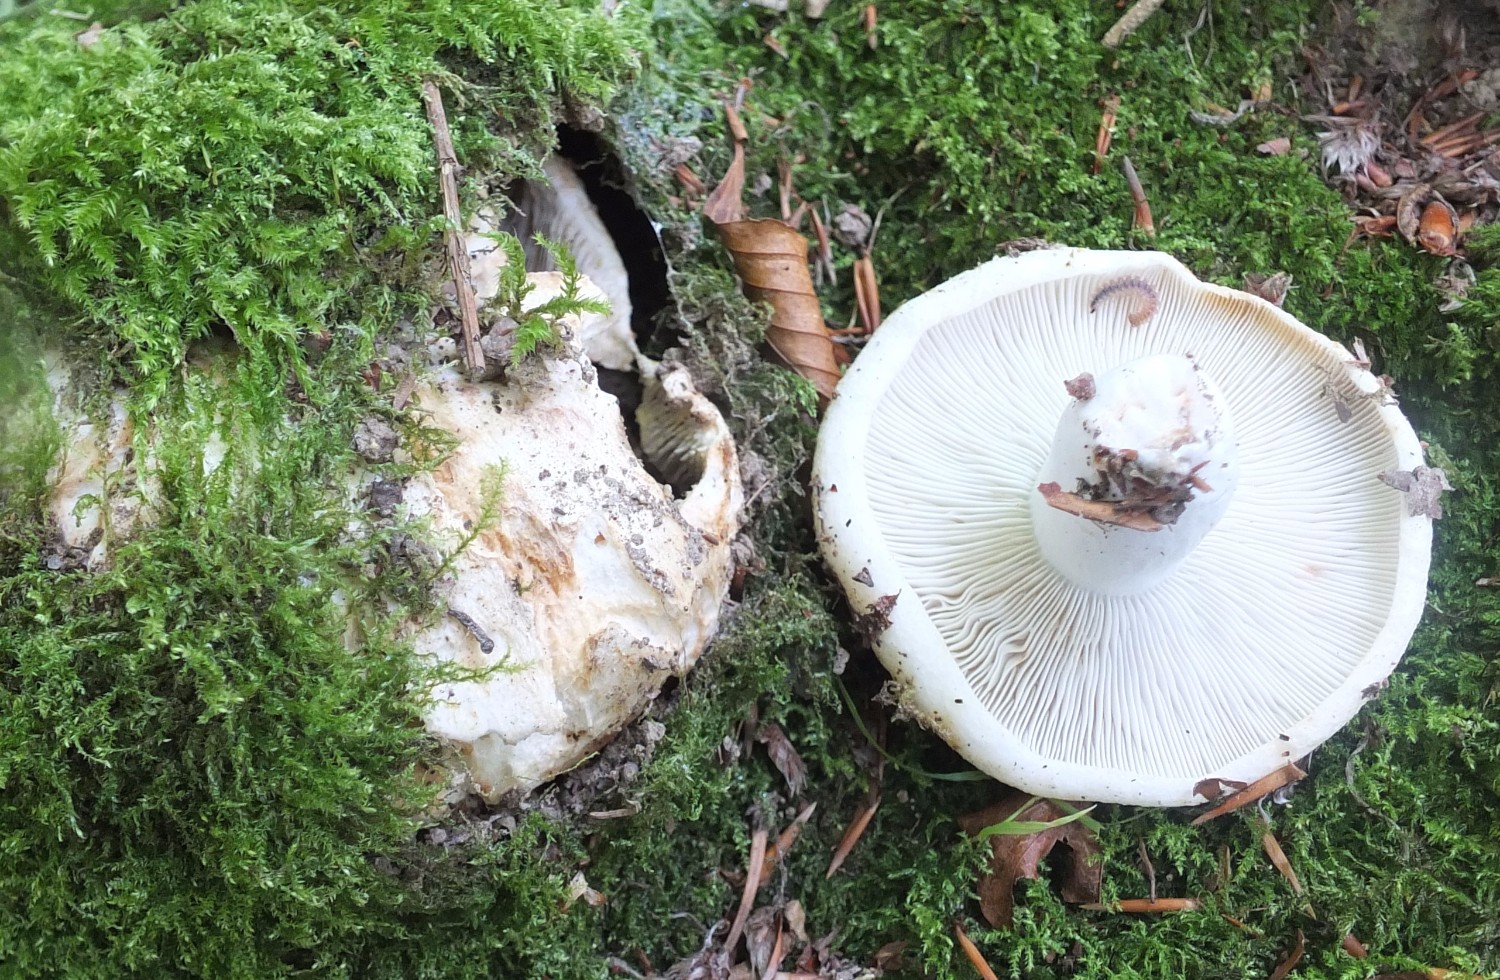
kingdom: Fungi
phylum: Basidiomycota
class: Agaricomycetes
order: Russulales
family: Russulaceae
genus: Russula
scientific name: Russula chloroides
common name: grønhalset tragt-skørhat
